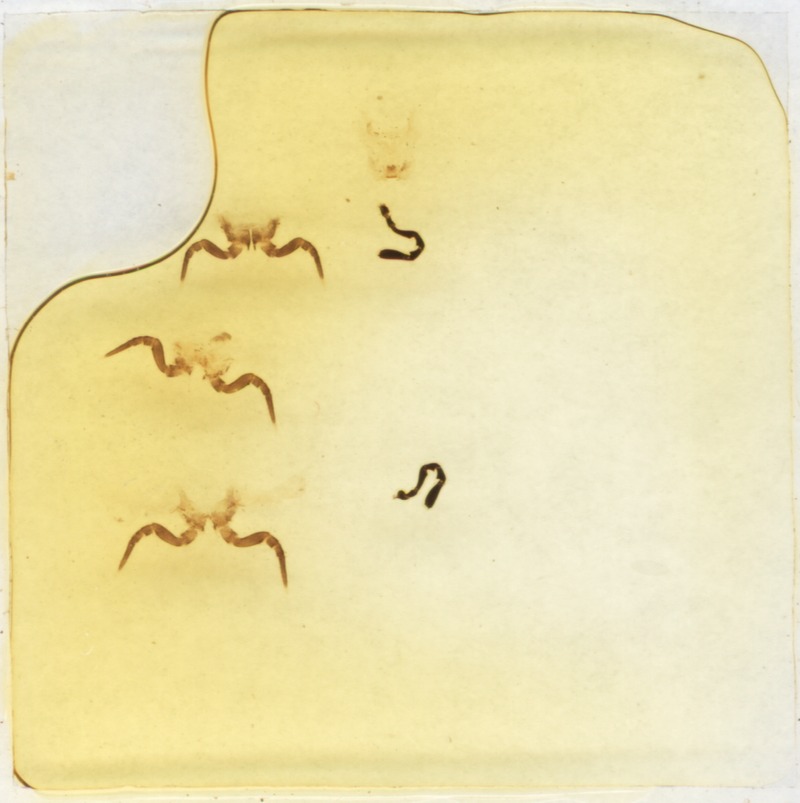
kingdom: Animalia
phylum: Arthropoda
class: Diplopoda
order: Glomerida
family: Glomeridae
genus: Haploglomeris
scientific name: Haploglomeris multistriata
